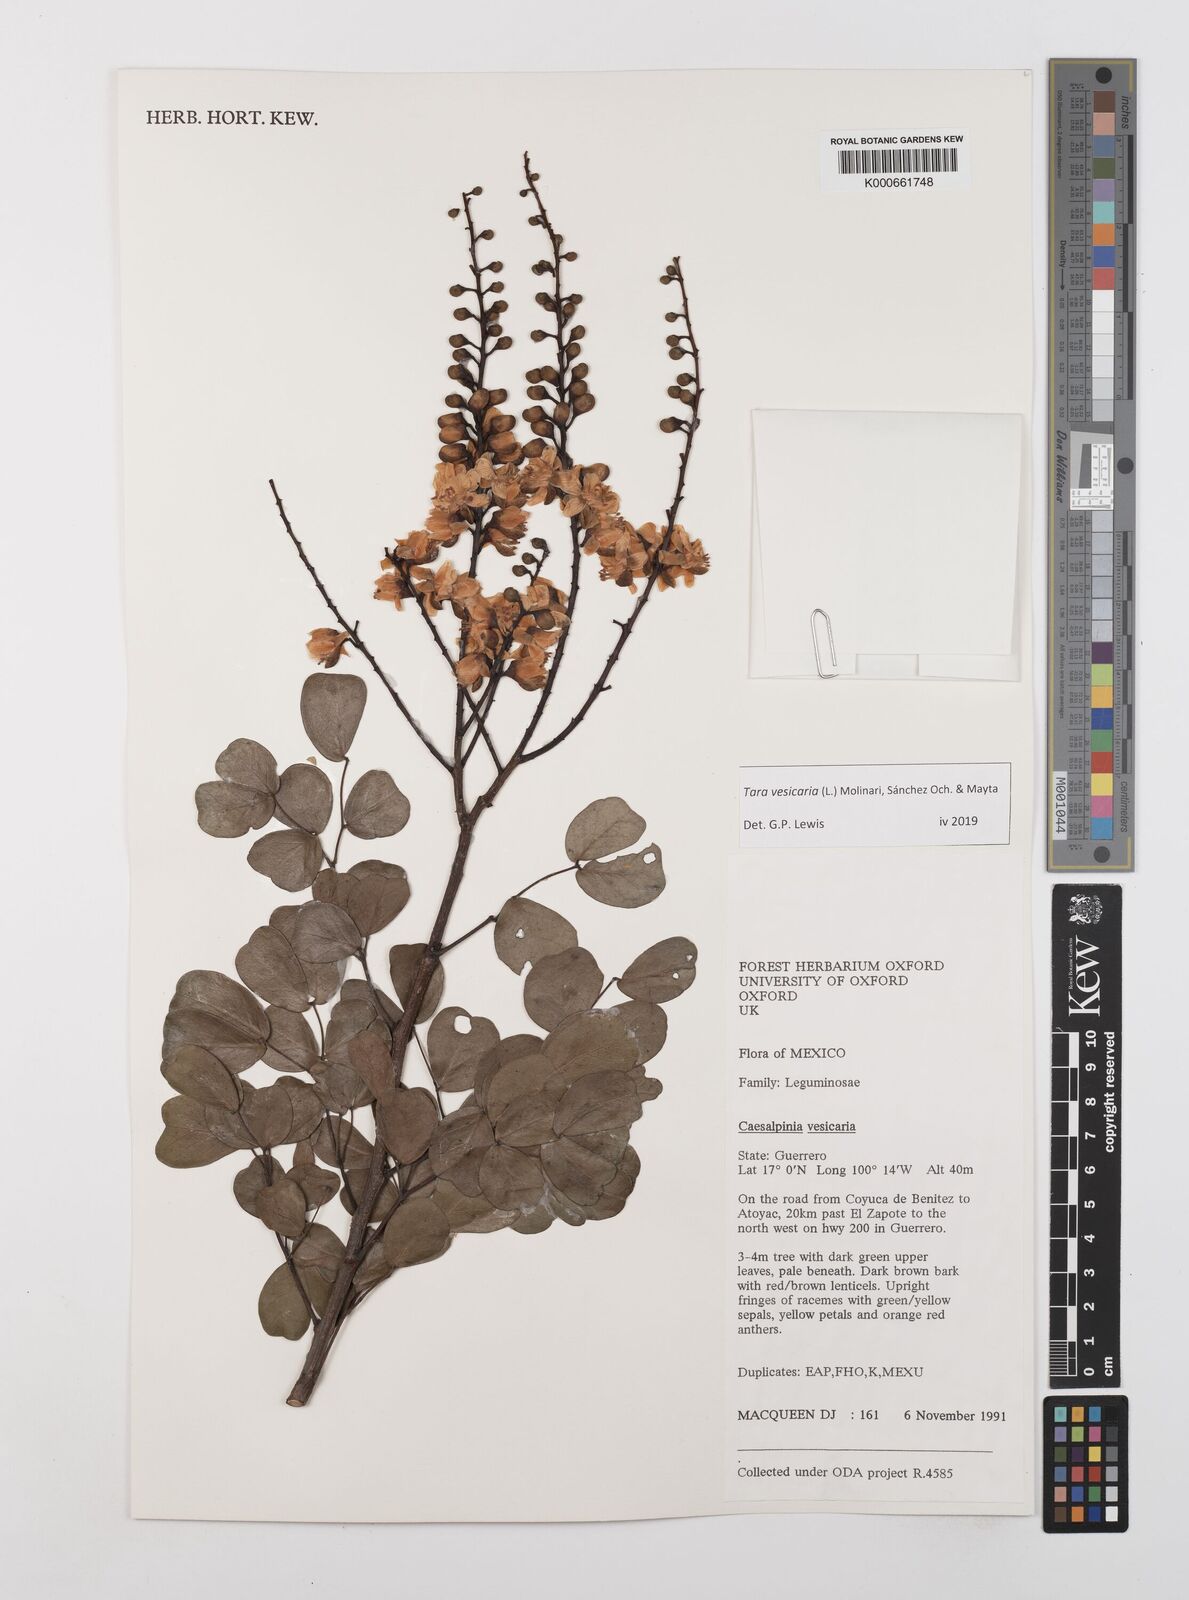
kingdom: Plantae
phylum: Tracheophyta
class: Magnoliopsida
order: Fabales
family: Fabaceae
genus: Tara
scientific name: Tara vesicaria
